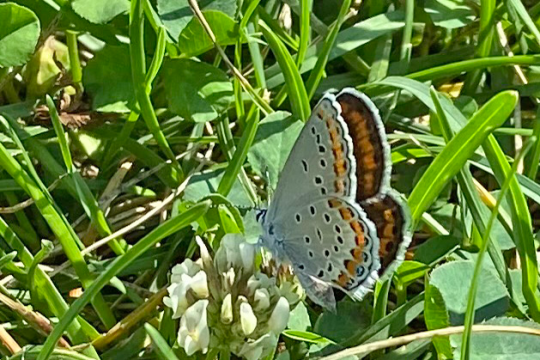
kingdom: Animalia
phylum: Arthropoda
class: Insecta
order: Lepidoptera
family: Lycaenidae
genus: Lycaeides
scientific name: Lycaeides melissa
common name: Melissa Blue
